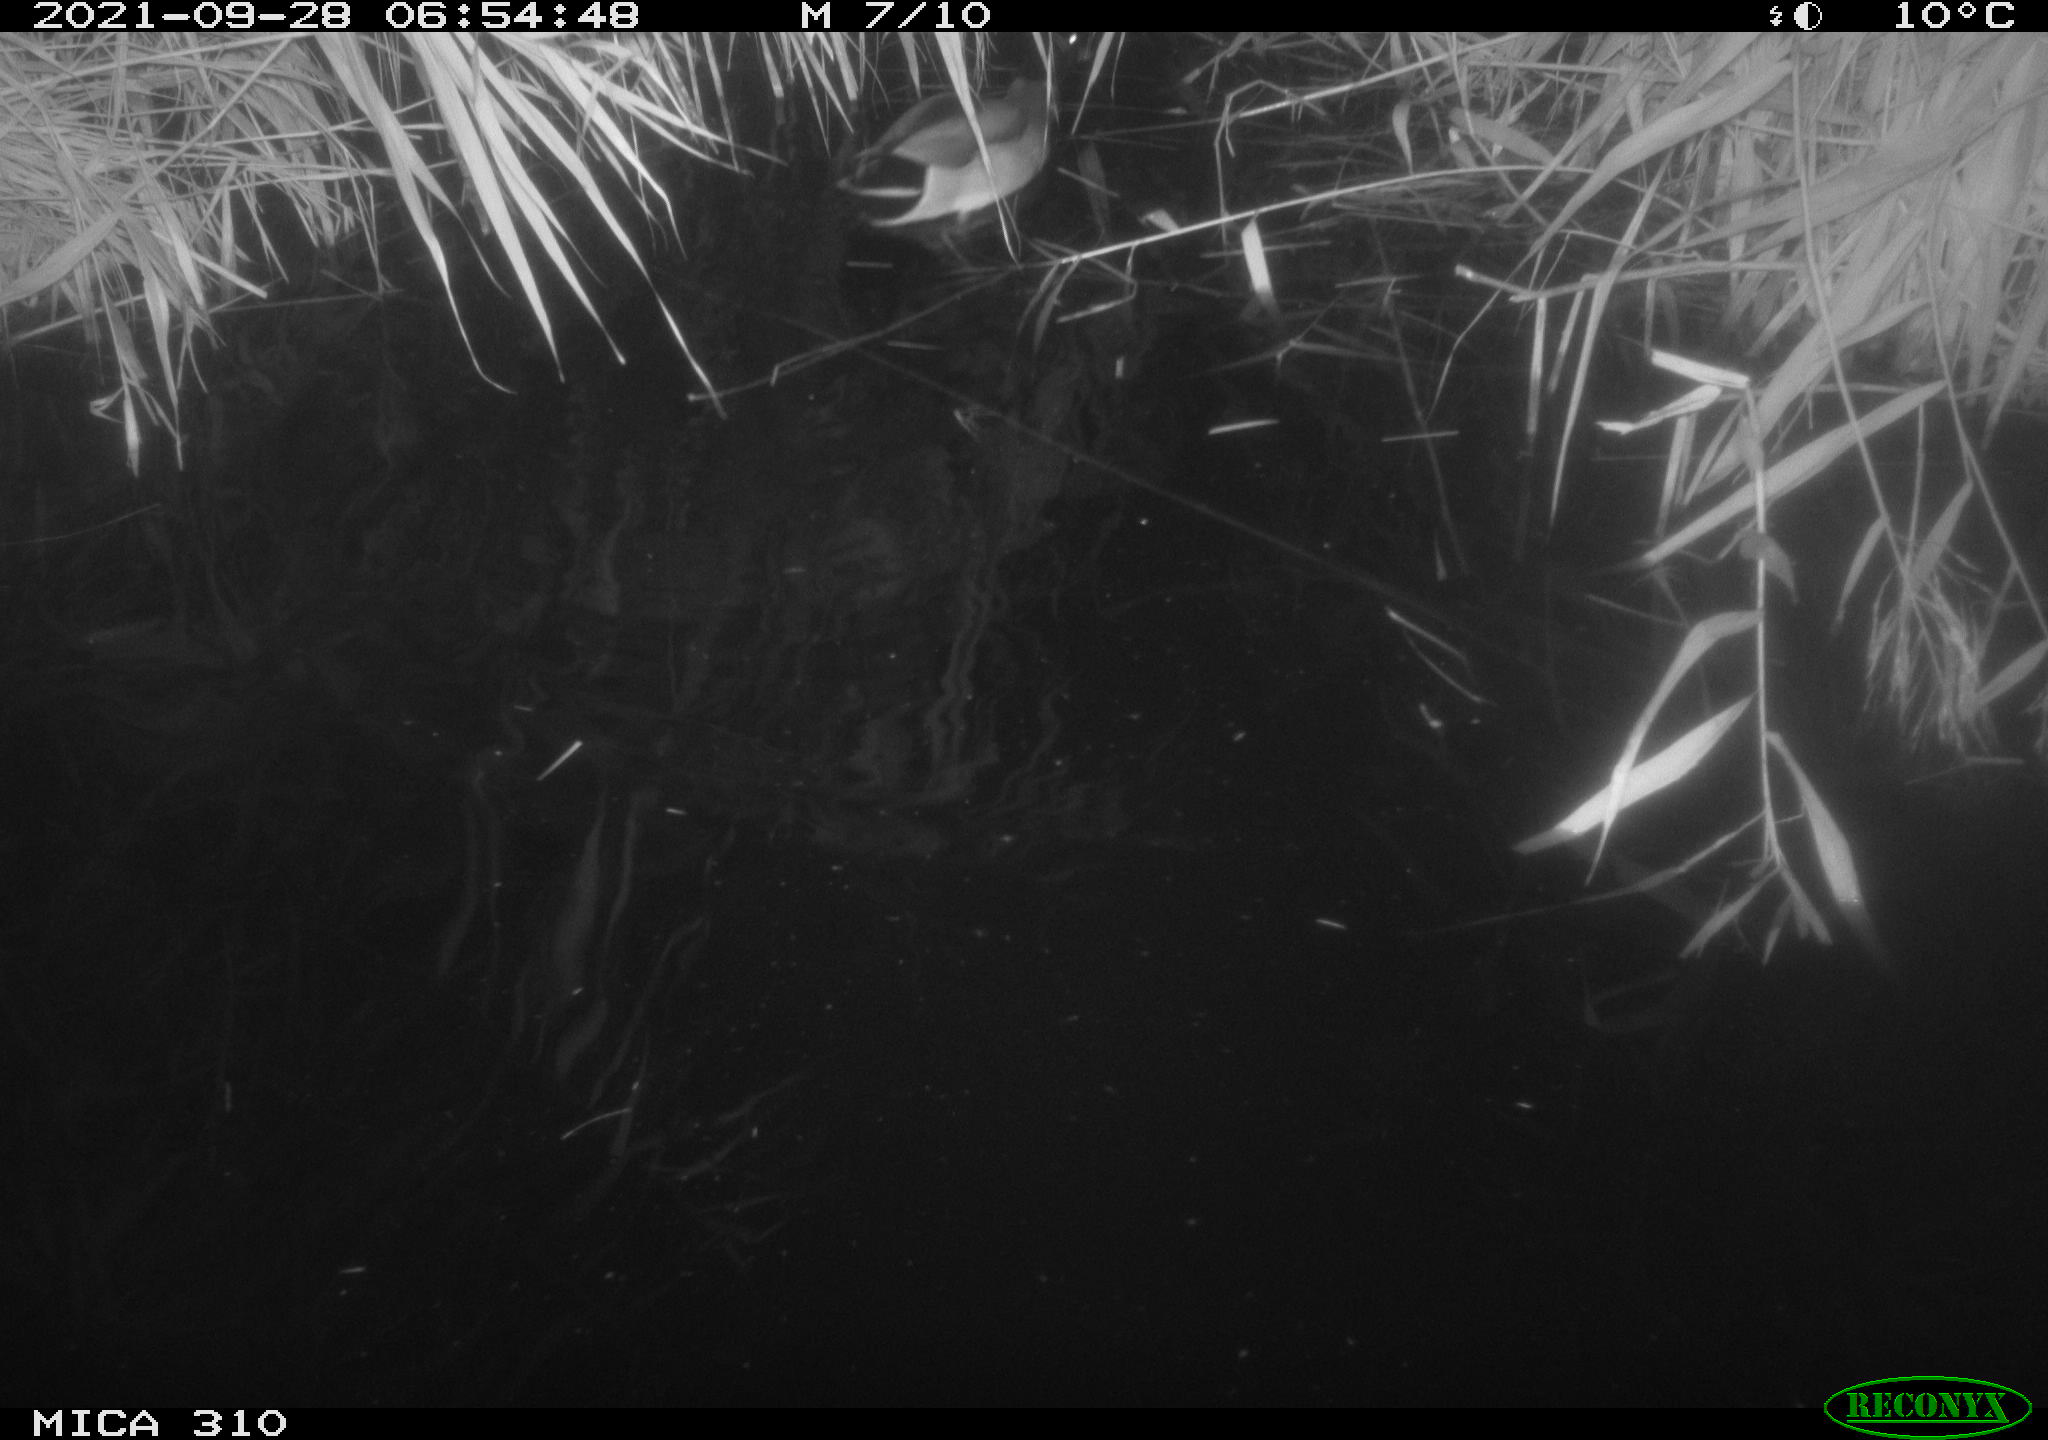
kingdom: Animalia
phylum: Chordata
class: Aves
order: Anseriformes
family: Anatidae
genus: Anas
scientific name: Anas platyrhynchos
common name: Mallard
